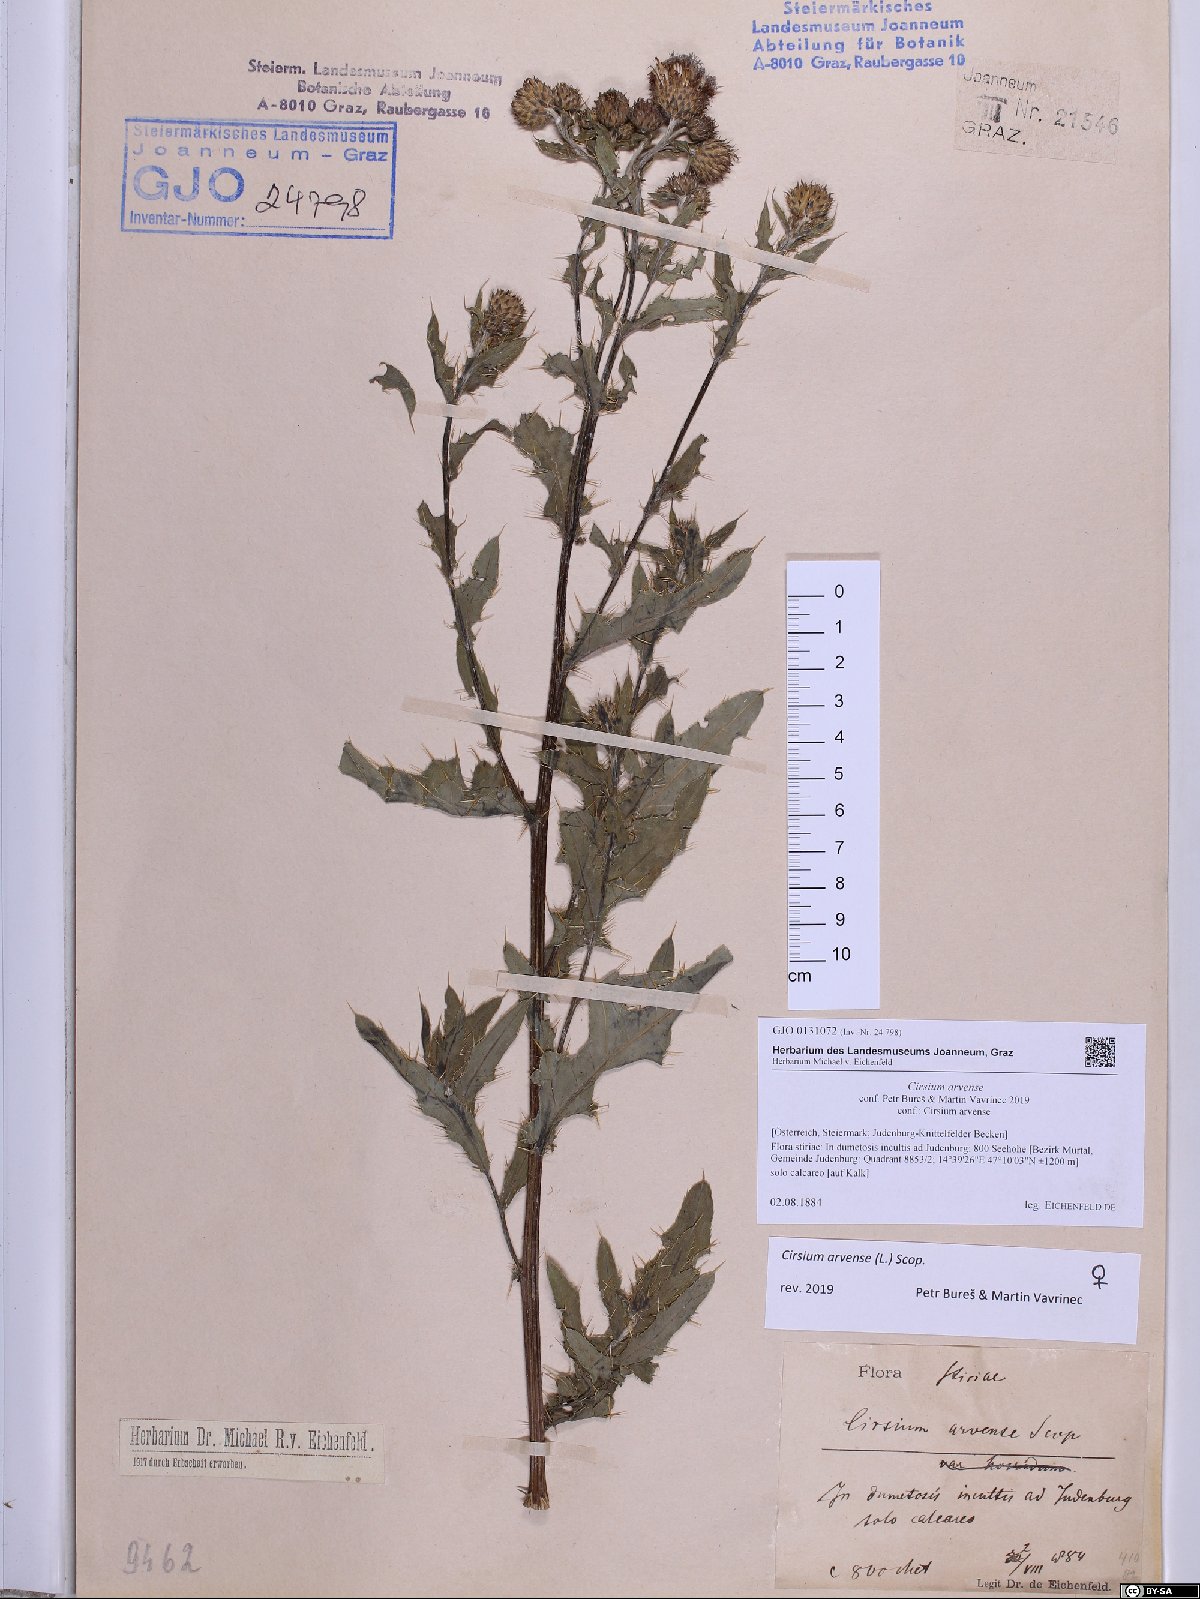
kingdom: Plantae
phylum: Tracheophyta
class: Magnoliopsida
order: Asterales
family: Asteraceae
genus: Cirsium
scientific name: Cirsium arvense
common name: Creeping thistle
